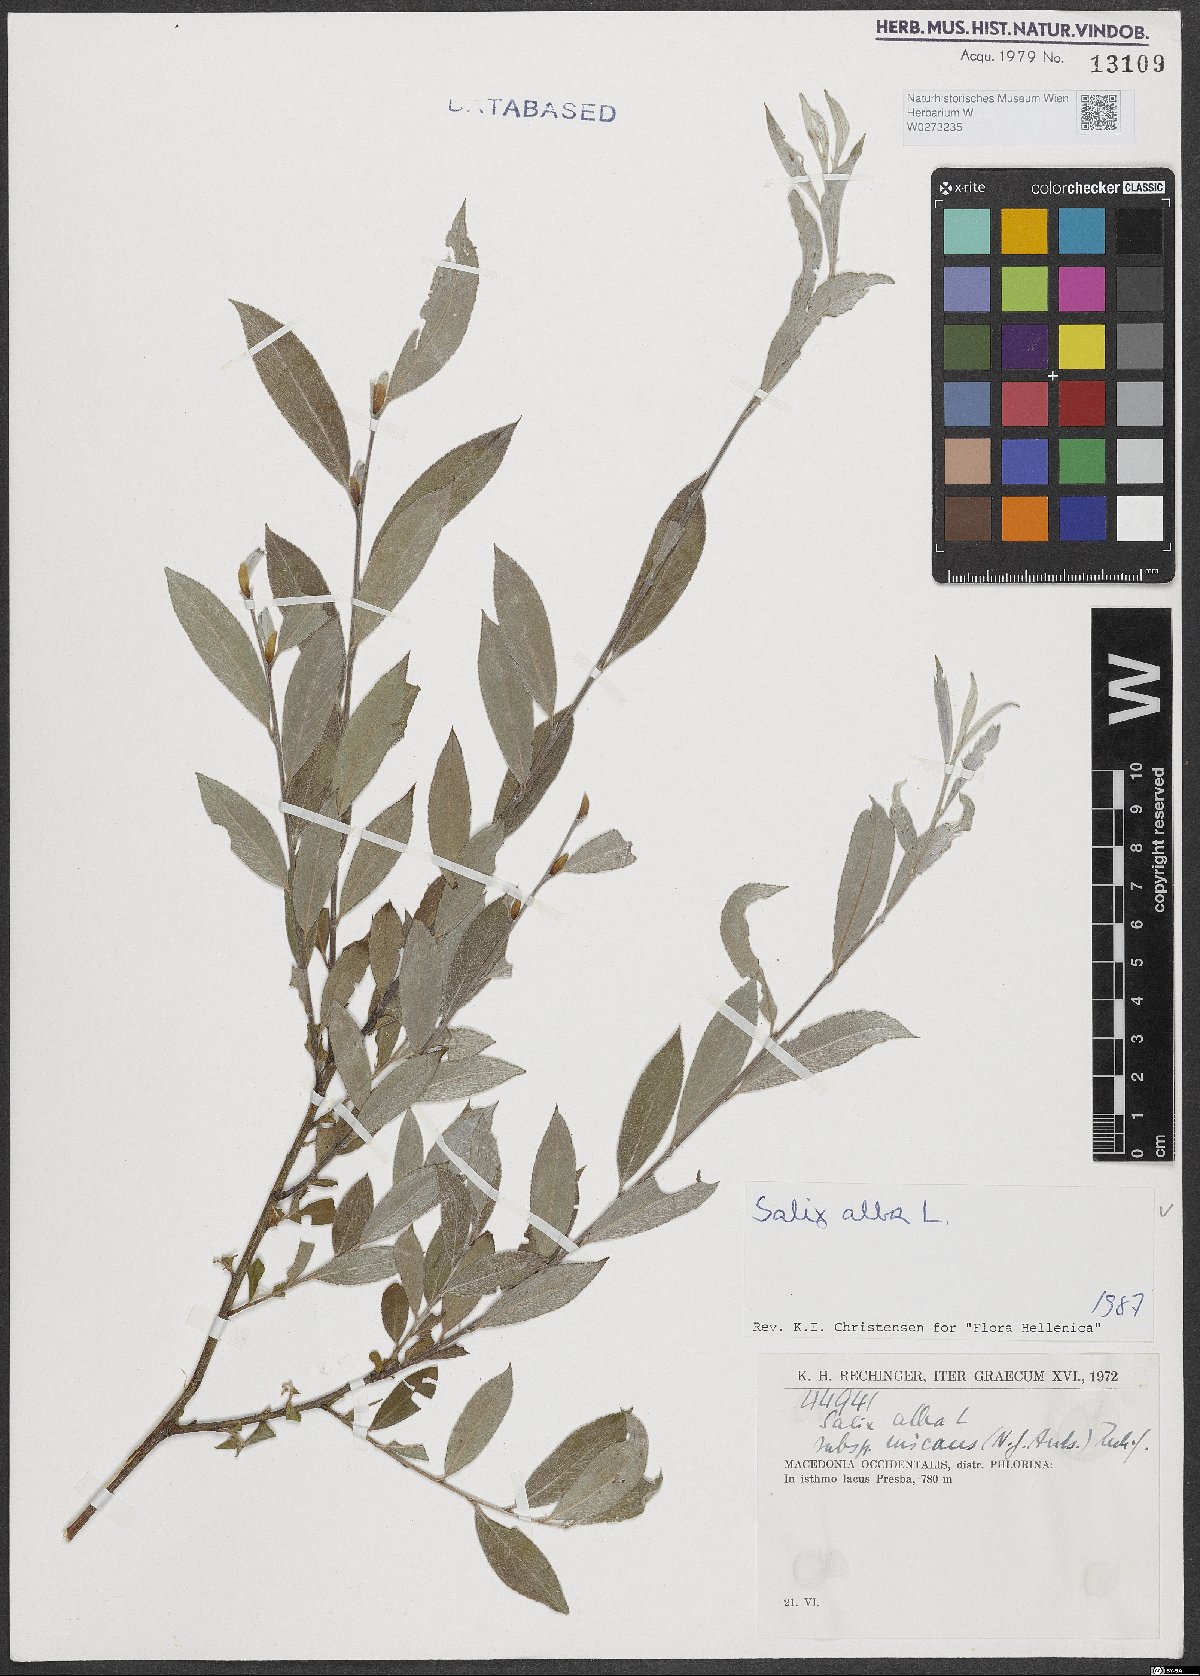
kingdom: Plantae
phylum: Tracheophyta
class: Magnoliopsida
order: Malpighiales
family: Salicaceae
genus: Salix
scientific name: Salix alba
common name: White willow
